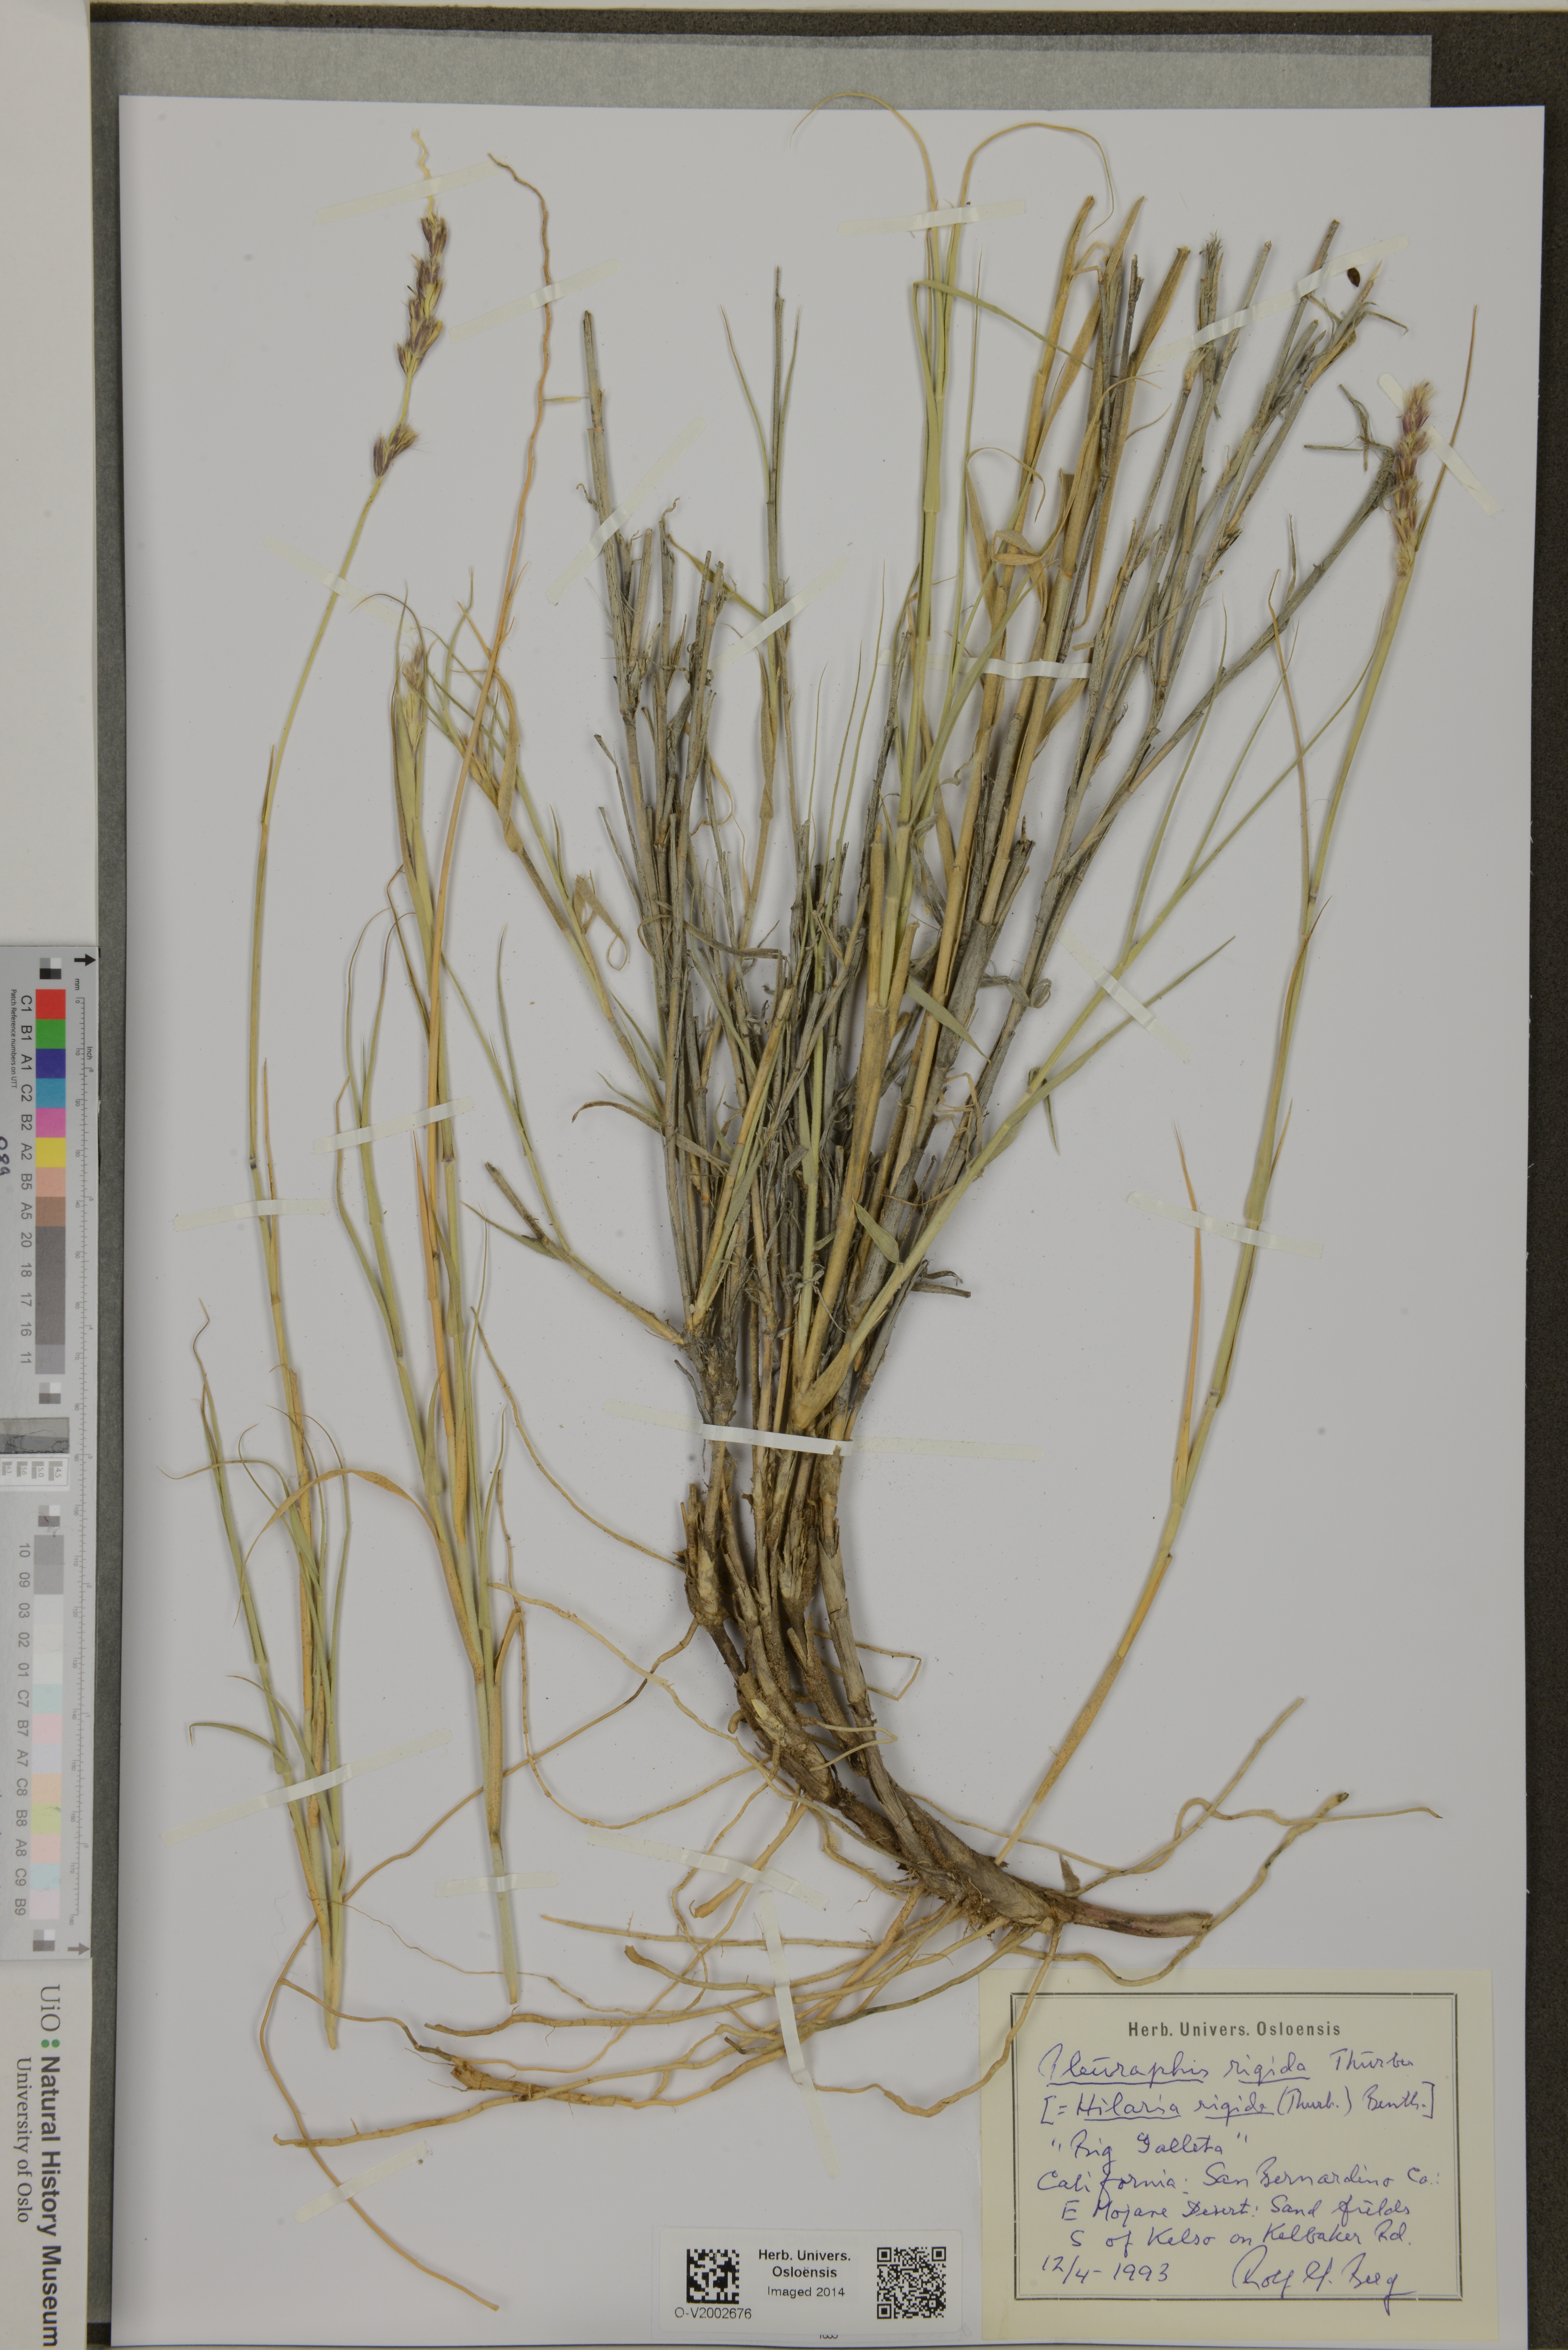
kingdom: Plantae
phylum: Tracheophyta
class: Liliopsida
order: Poales
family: Poaceae
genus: Hilaria
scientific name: Hilaria rigida
